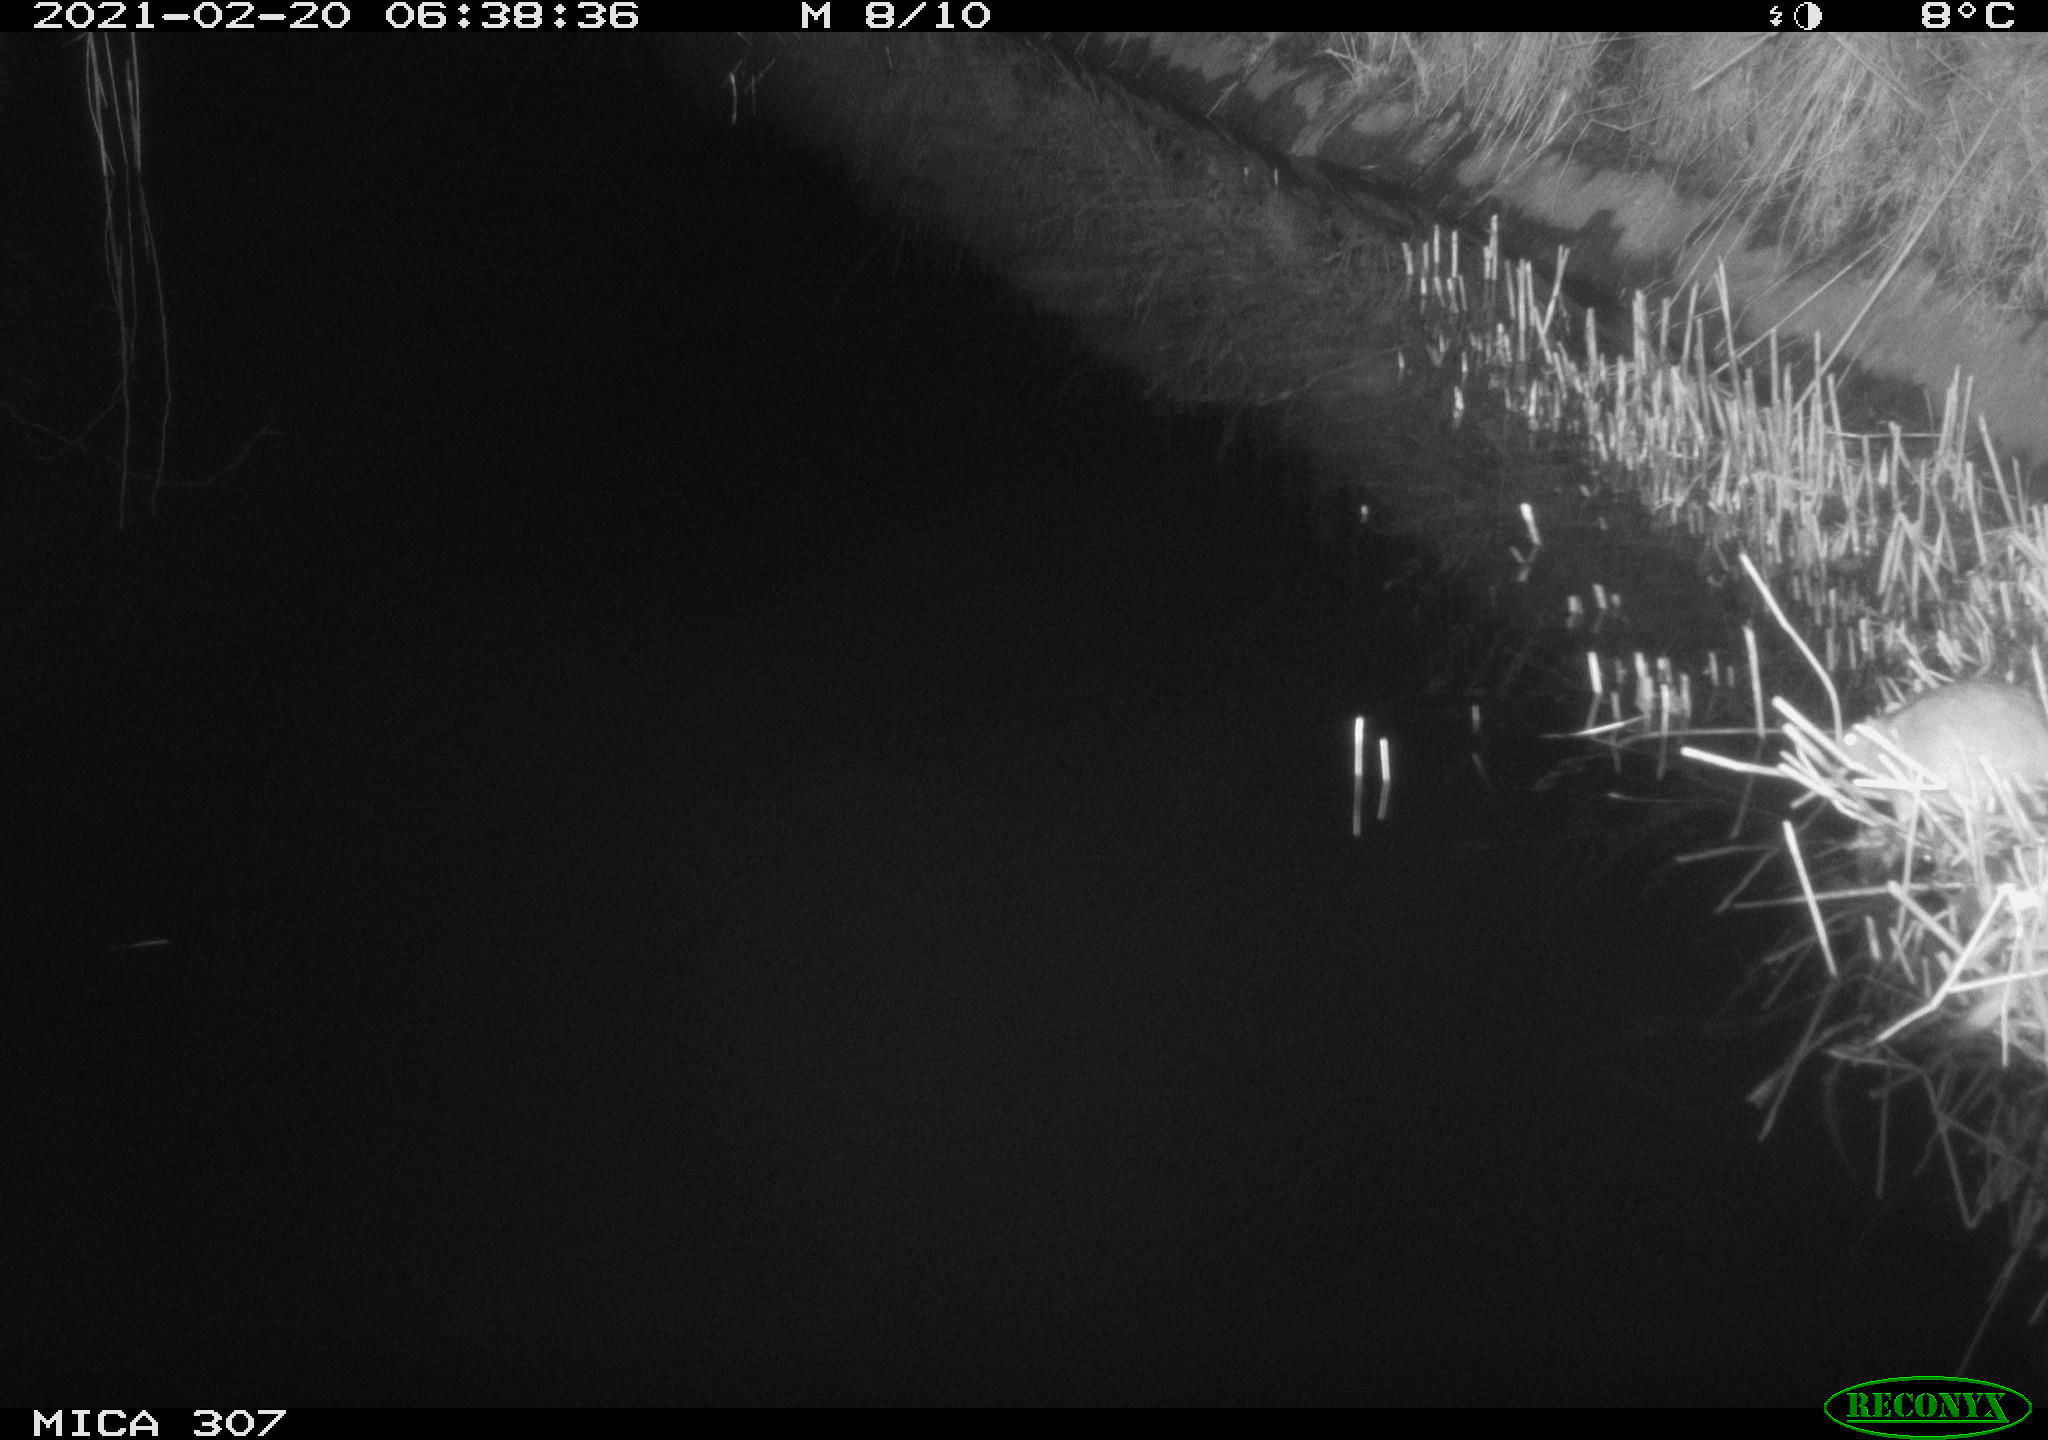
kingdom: Animalia
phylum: Chordata
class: Mammalia
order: Rodentia
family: Muridae
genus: Rattus
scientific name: Rattus norvegicus
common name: Brown rat
